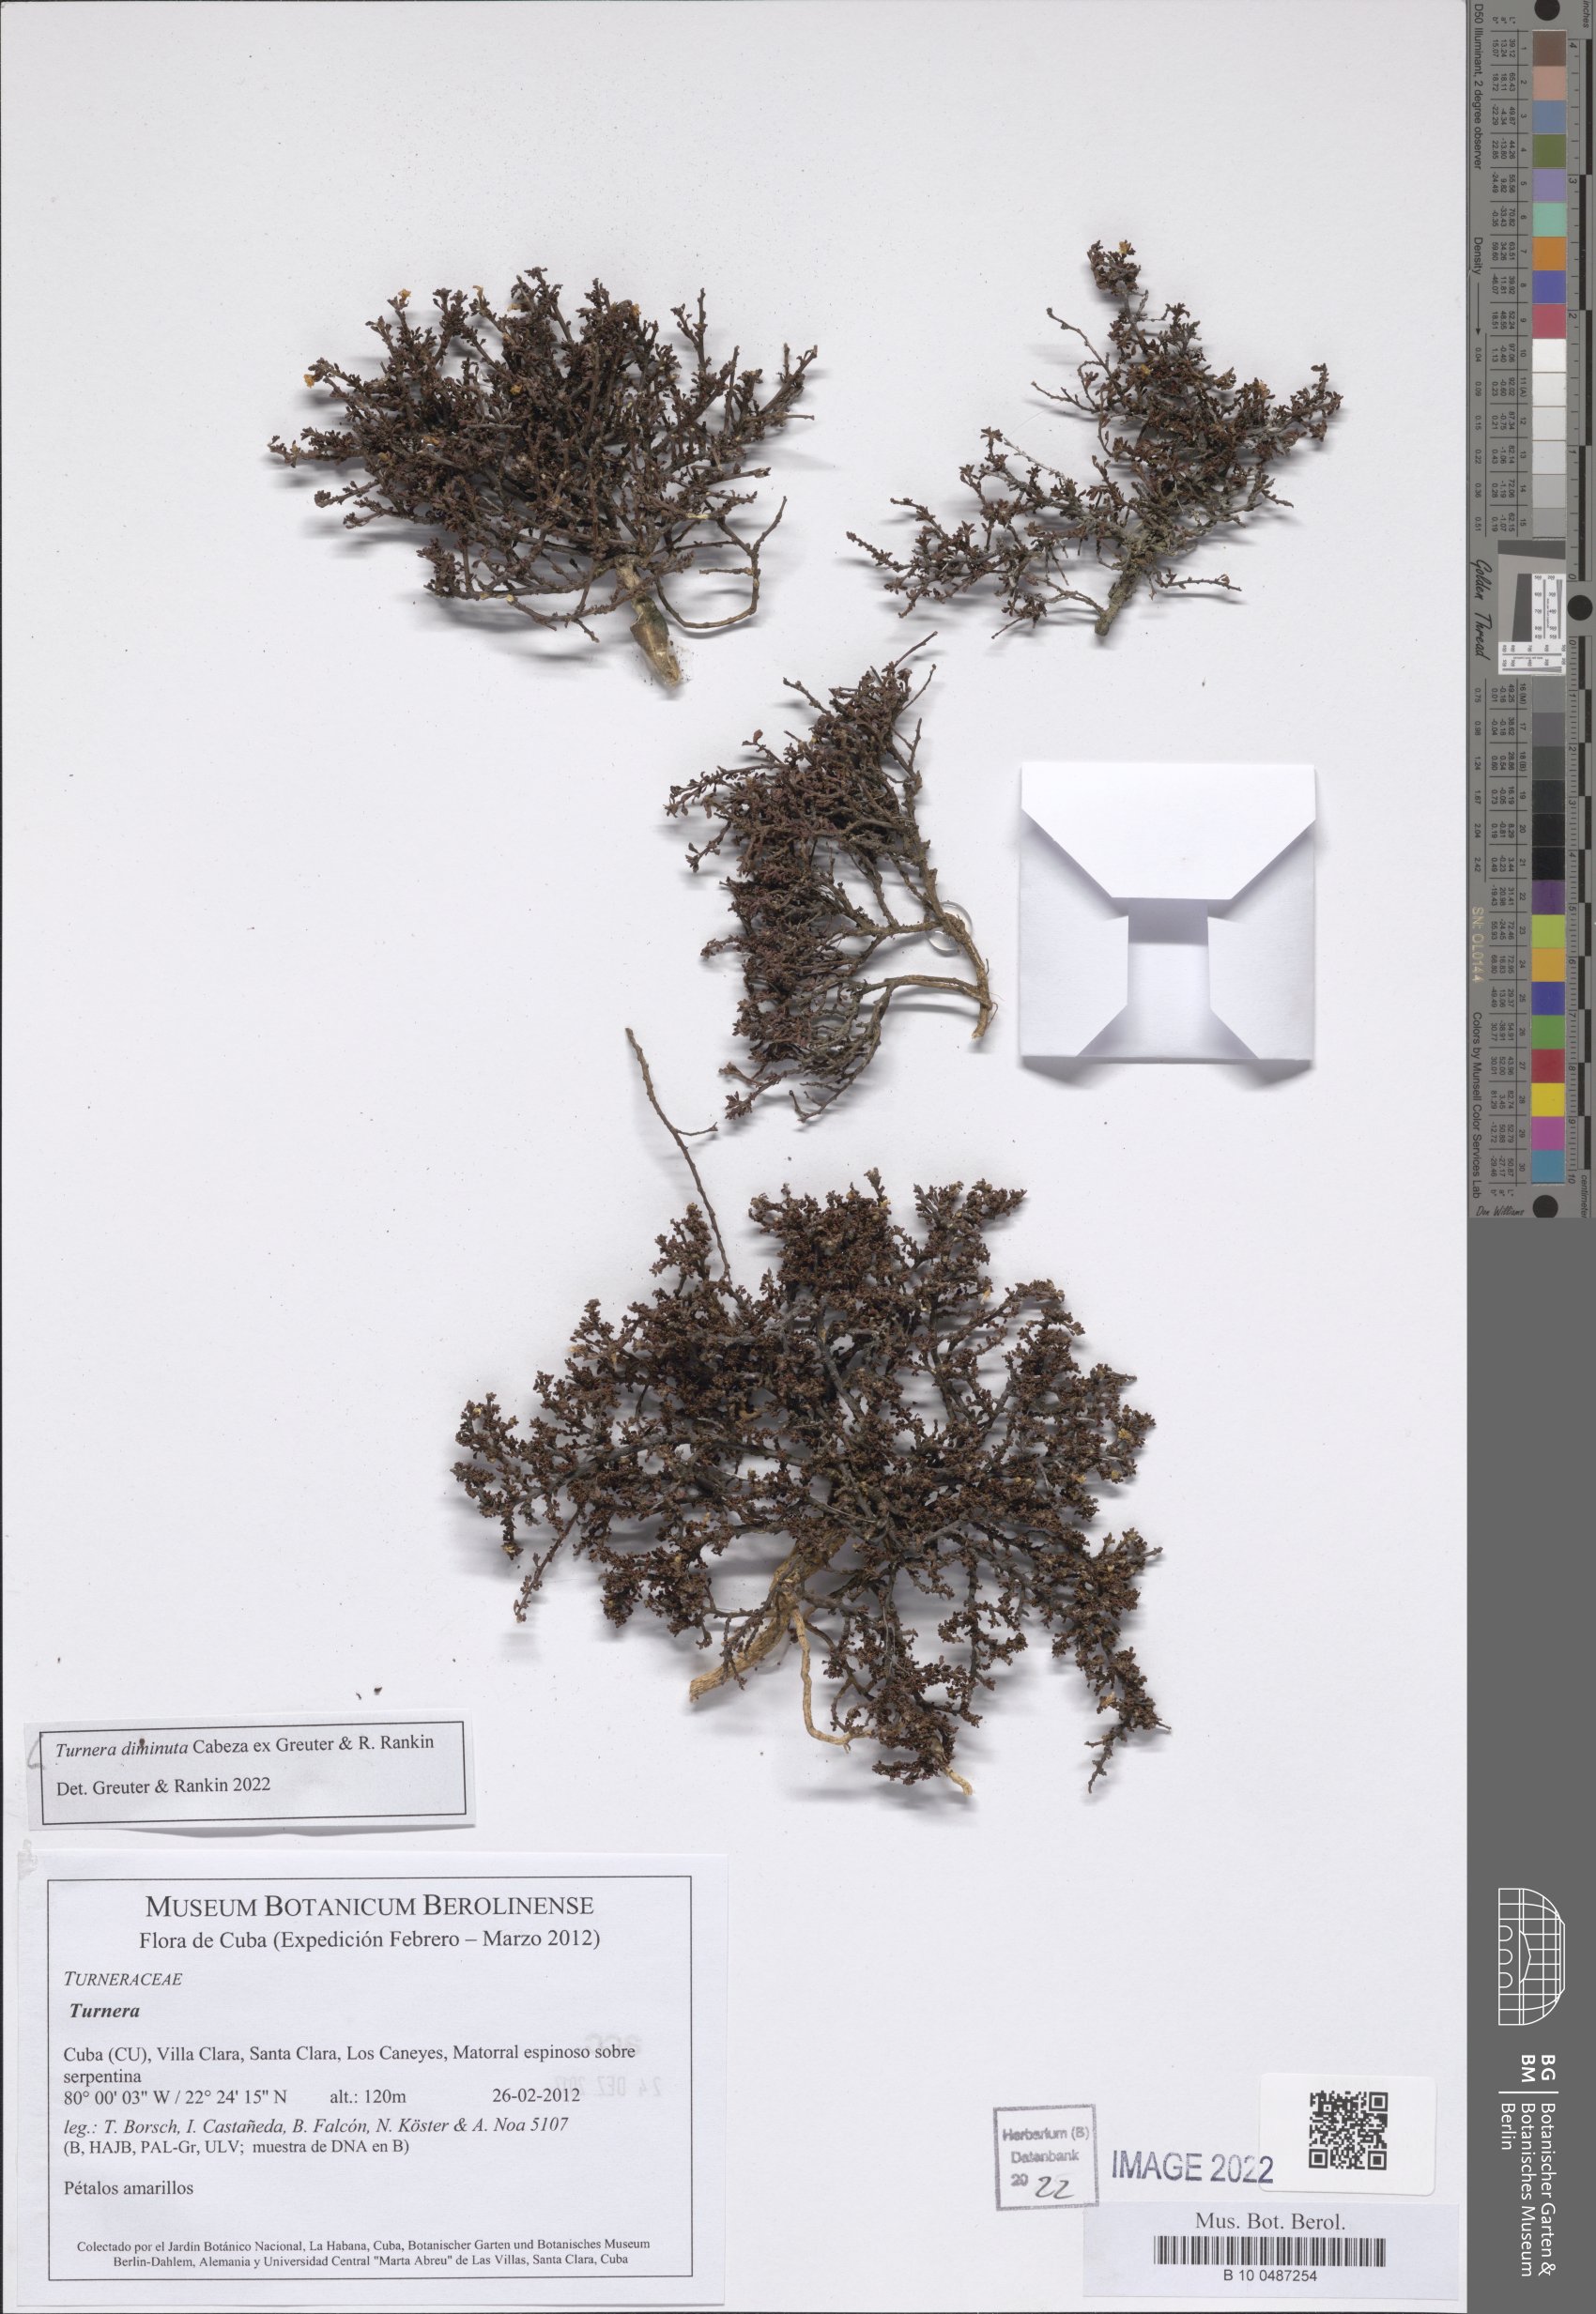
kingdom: Plantae
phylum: Tracheophyta
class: Magnoliopsida
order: Malpighiales
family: Turneraceae
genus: Turnera
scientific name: Turnera diminuta
